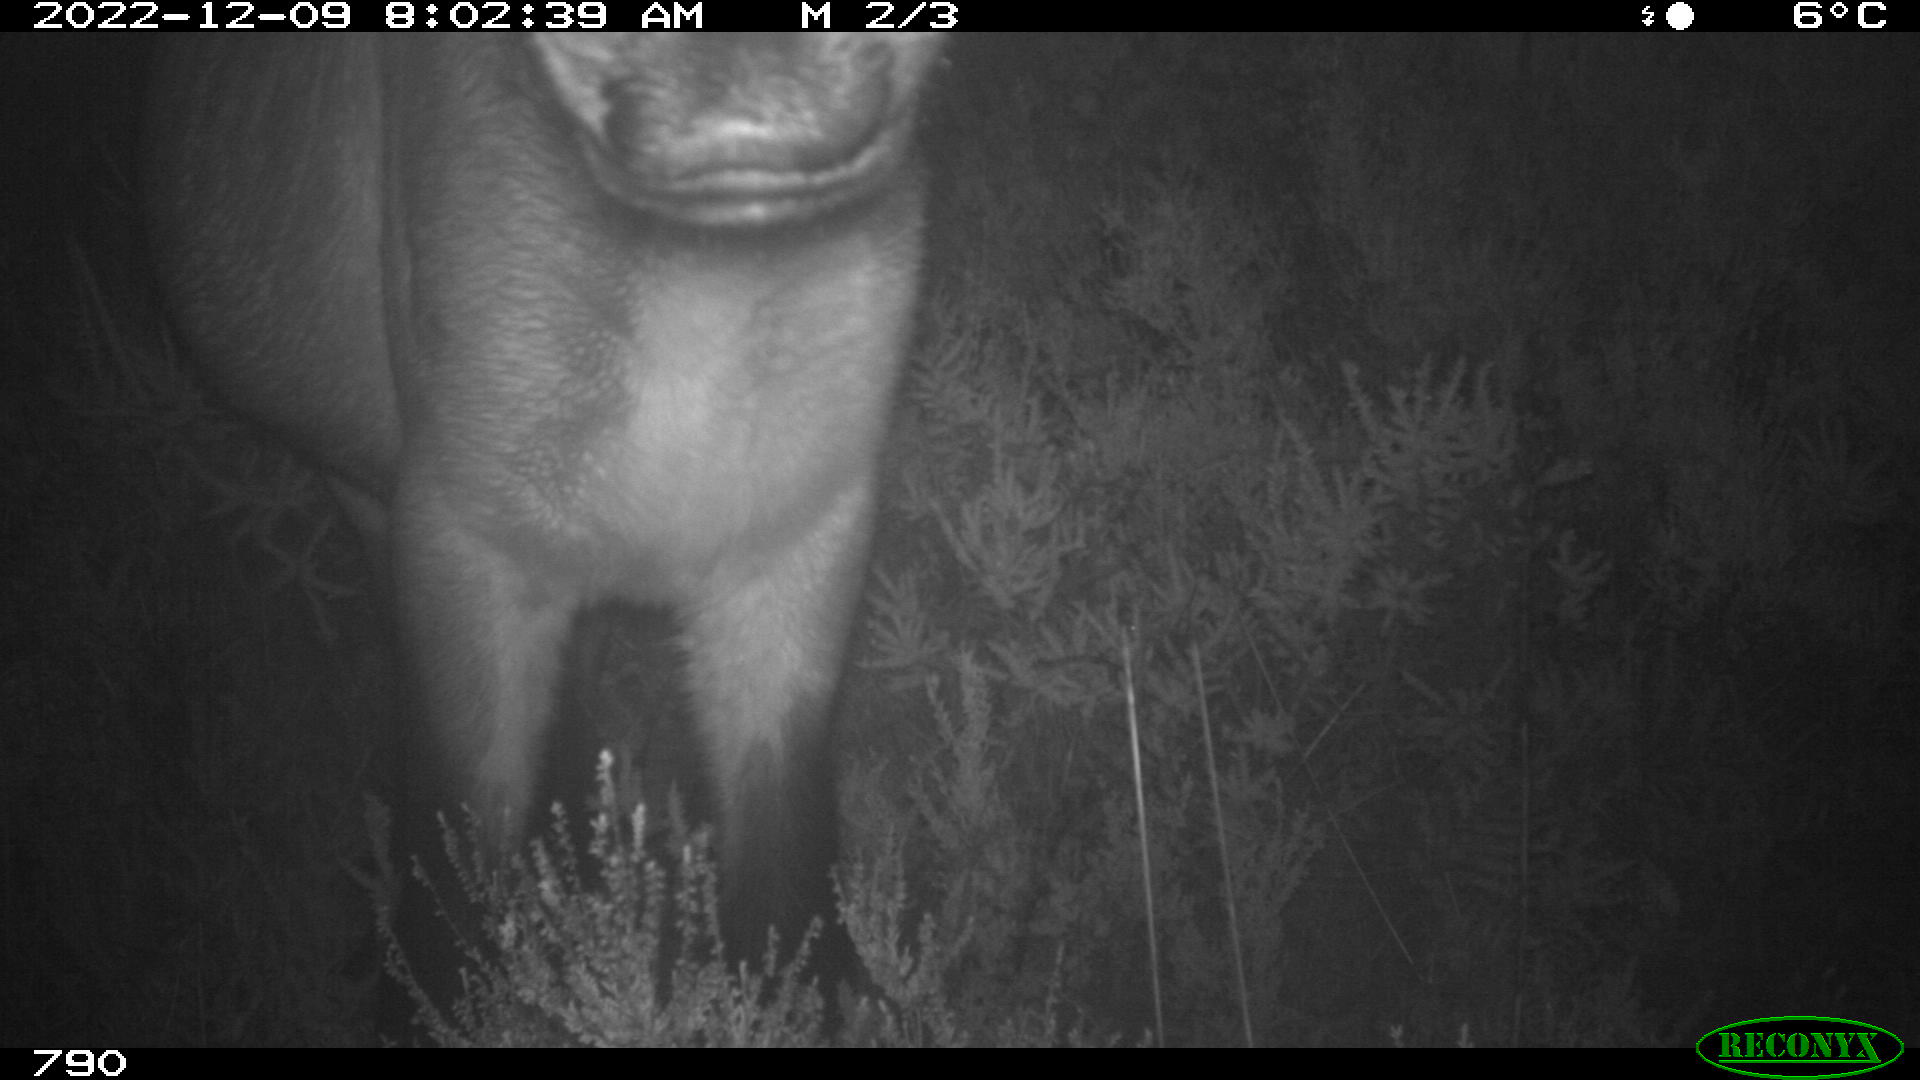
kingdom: Animalia
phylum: Chordata
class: Mammalia
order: Perissodactyla
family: Equidae
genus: Equus
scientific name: Equus caballus
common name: Horse
